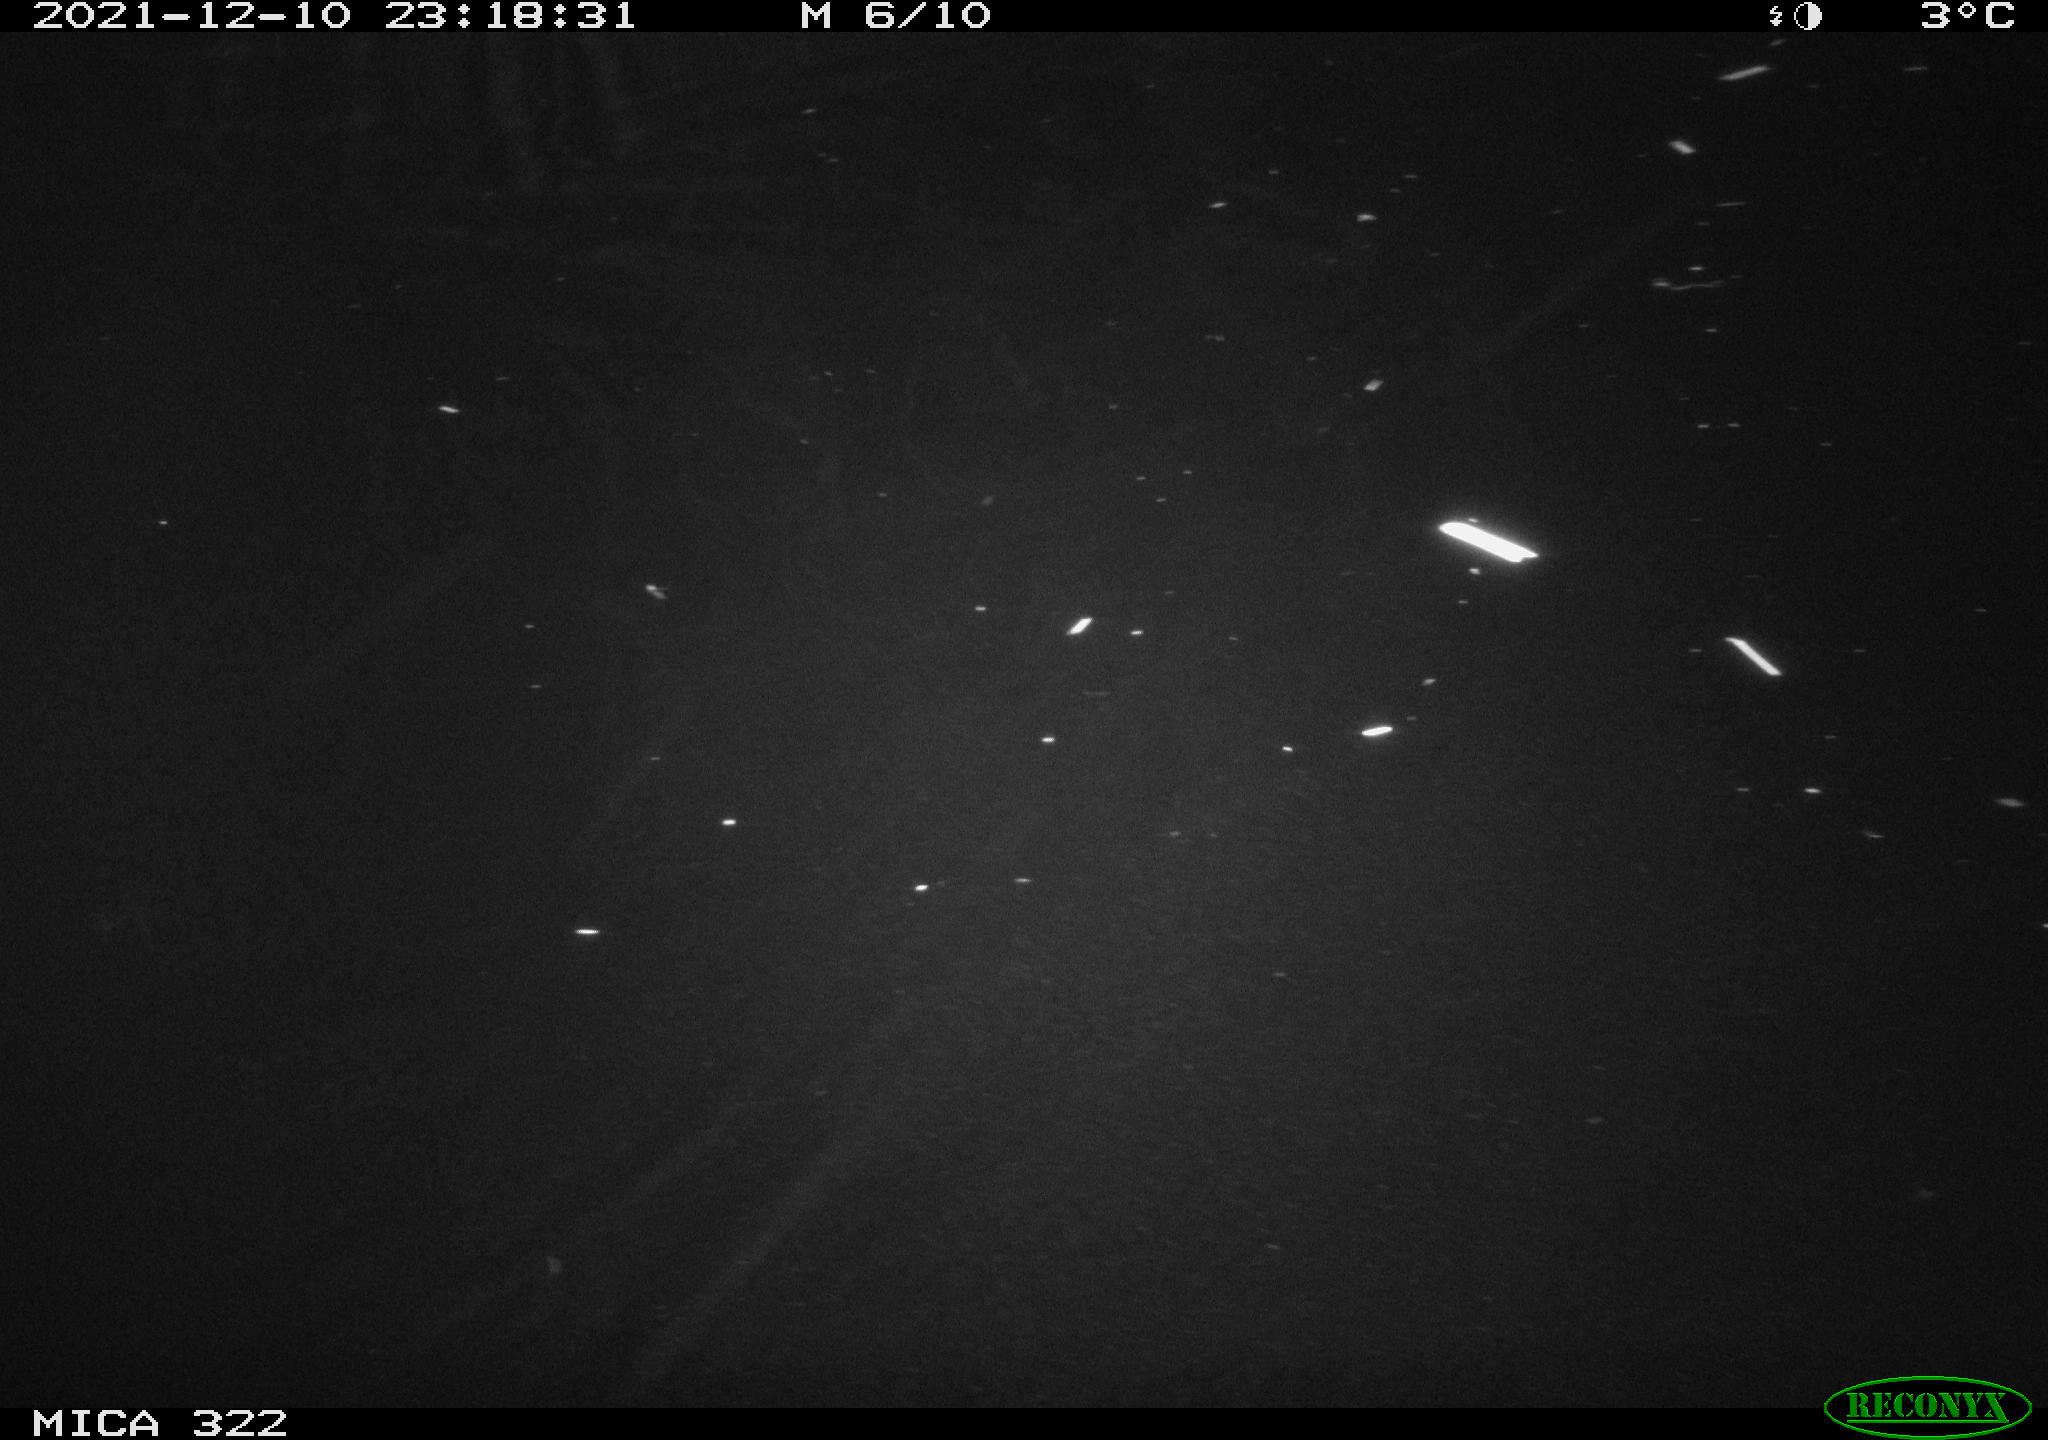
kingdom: Animalia
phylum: Chordata
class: Mammalia
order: Rodentia
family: Muridae
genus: Rattus
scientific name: Rattus norvegicus
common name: Brown rat
